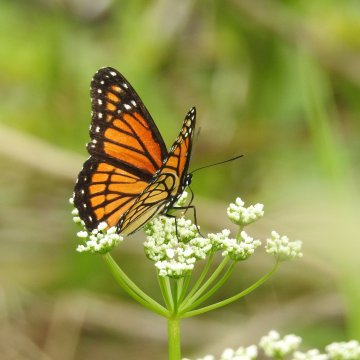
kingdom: Animalia
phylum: Arthropoda
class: Insecta
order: Lepidoptera
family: Nymphalidae
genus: Limenitis
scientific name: Limenitis archippus
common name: Viceroy
